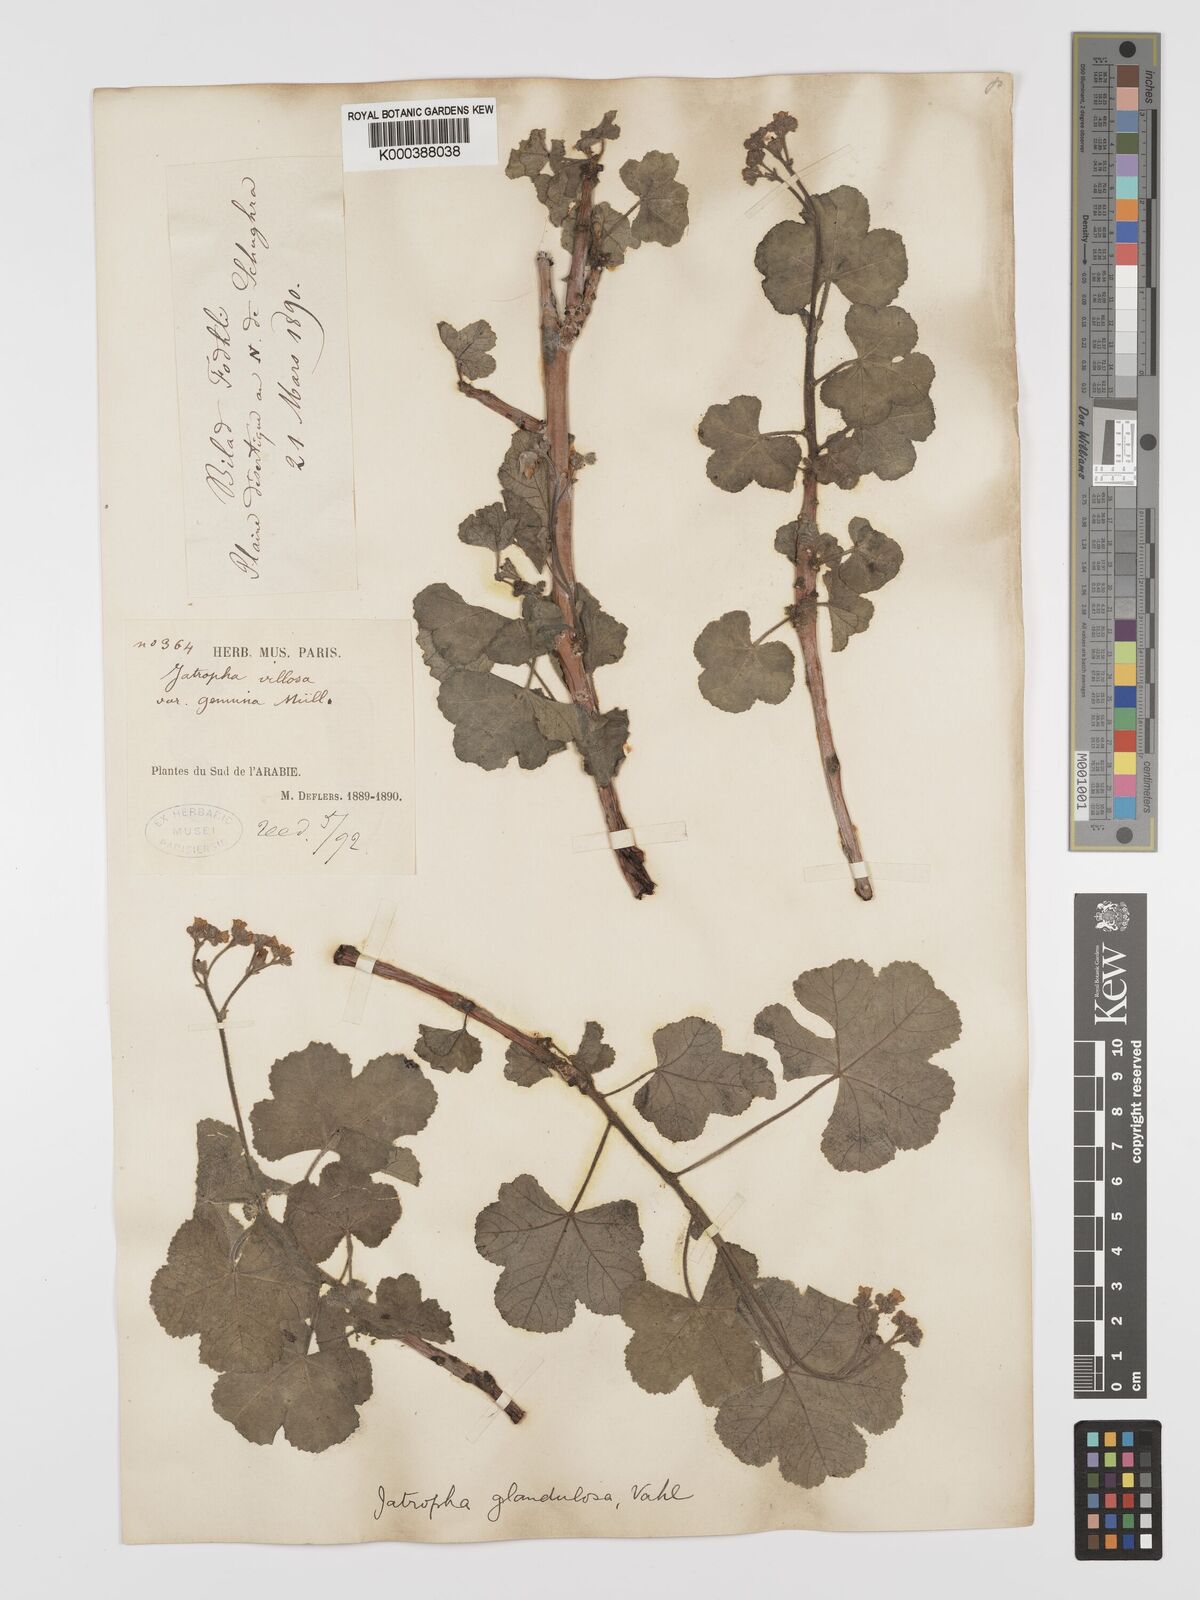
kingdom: Plantae
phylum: Tracheophyta
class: Magnoliopsida
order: Malpighiales
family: Euphorbiaceae
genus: Jatropha
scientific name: Jatropha pelargoniifolia
